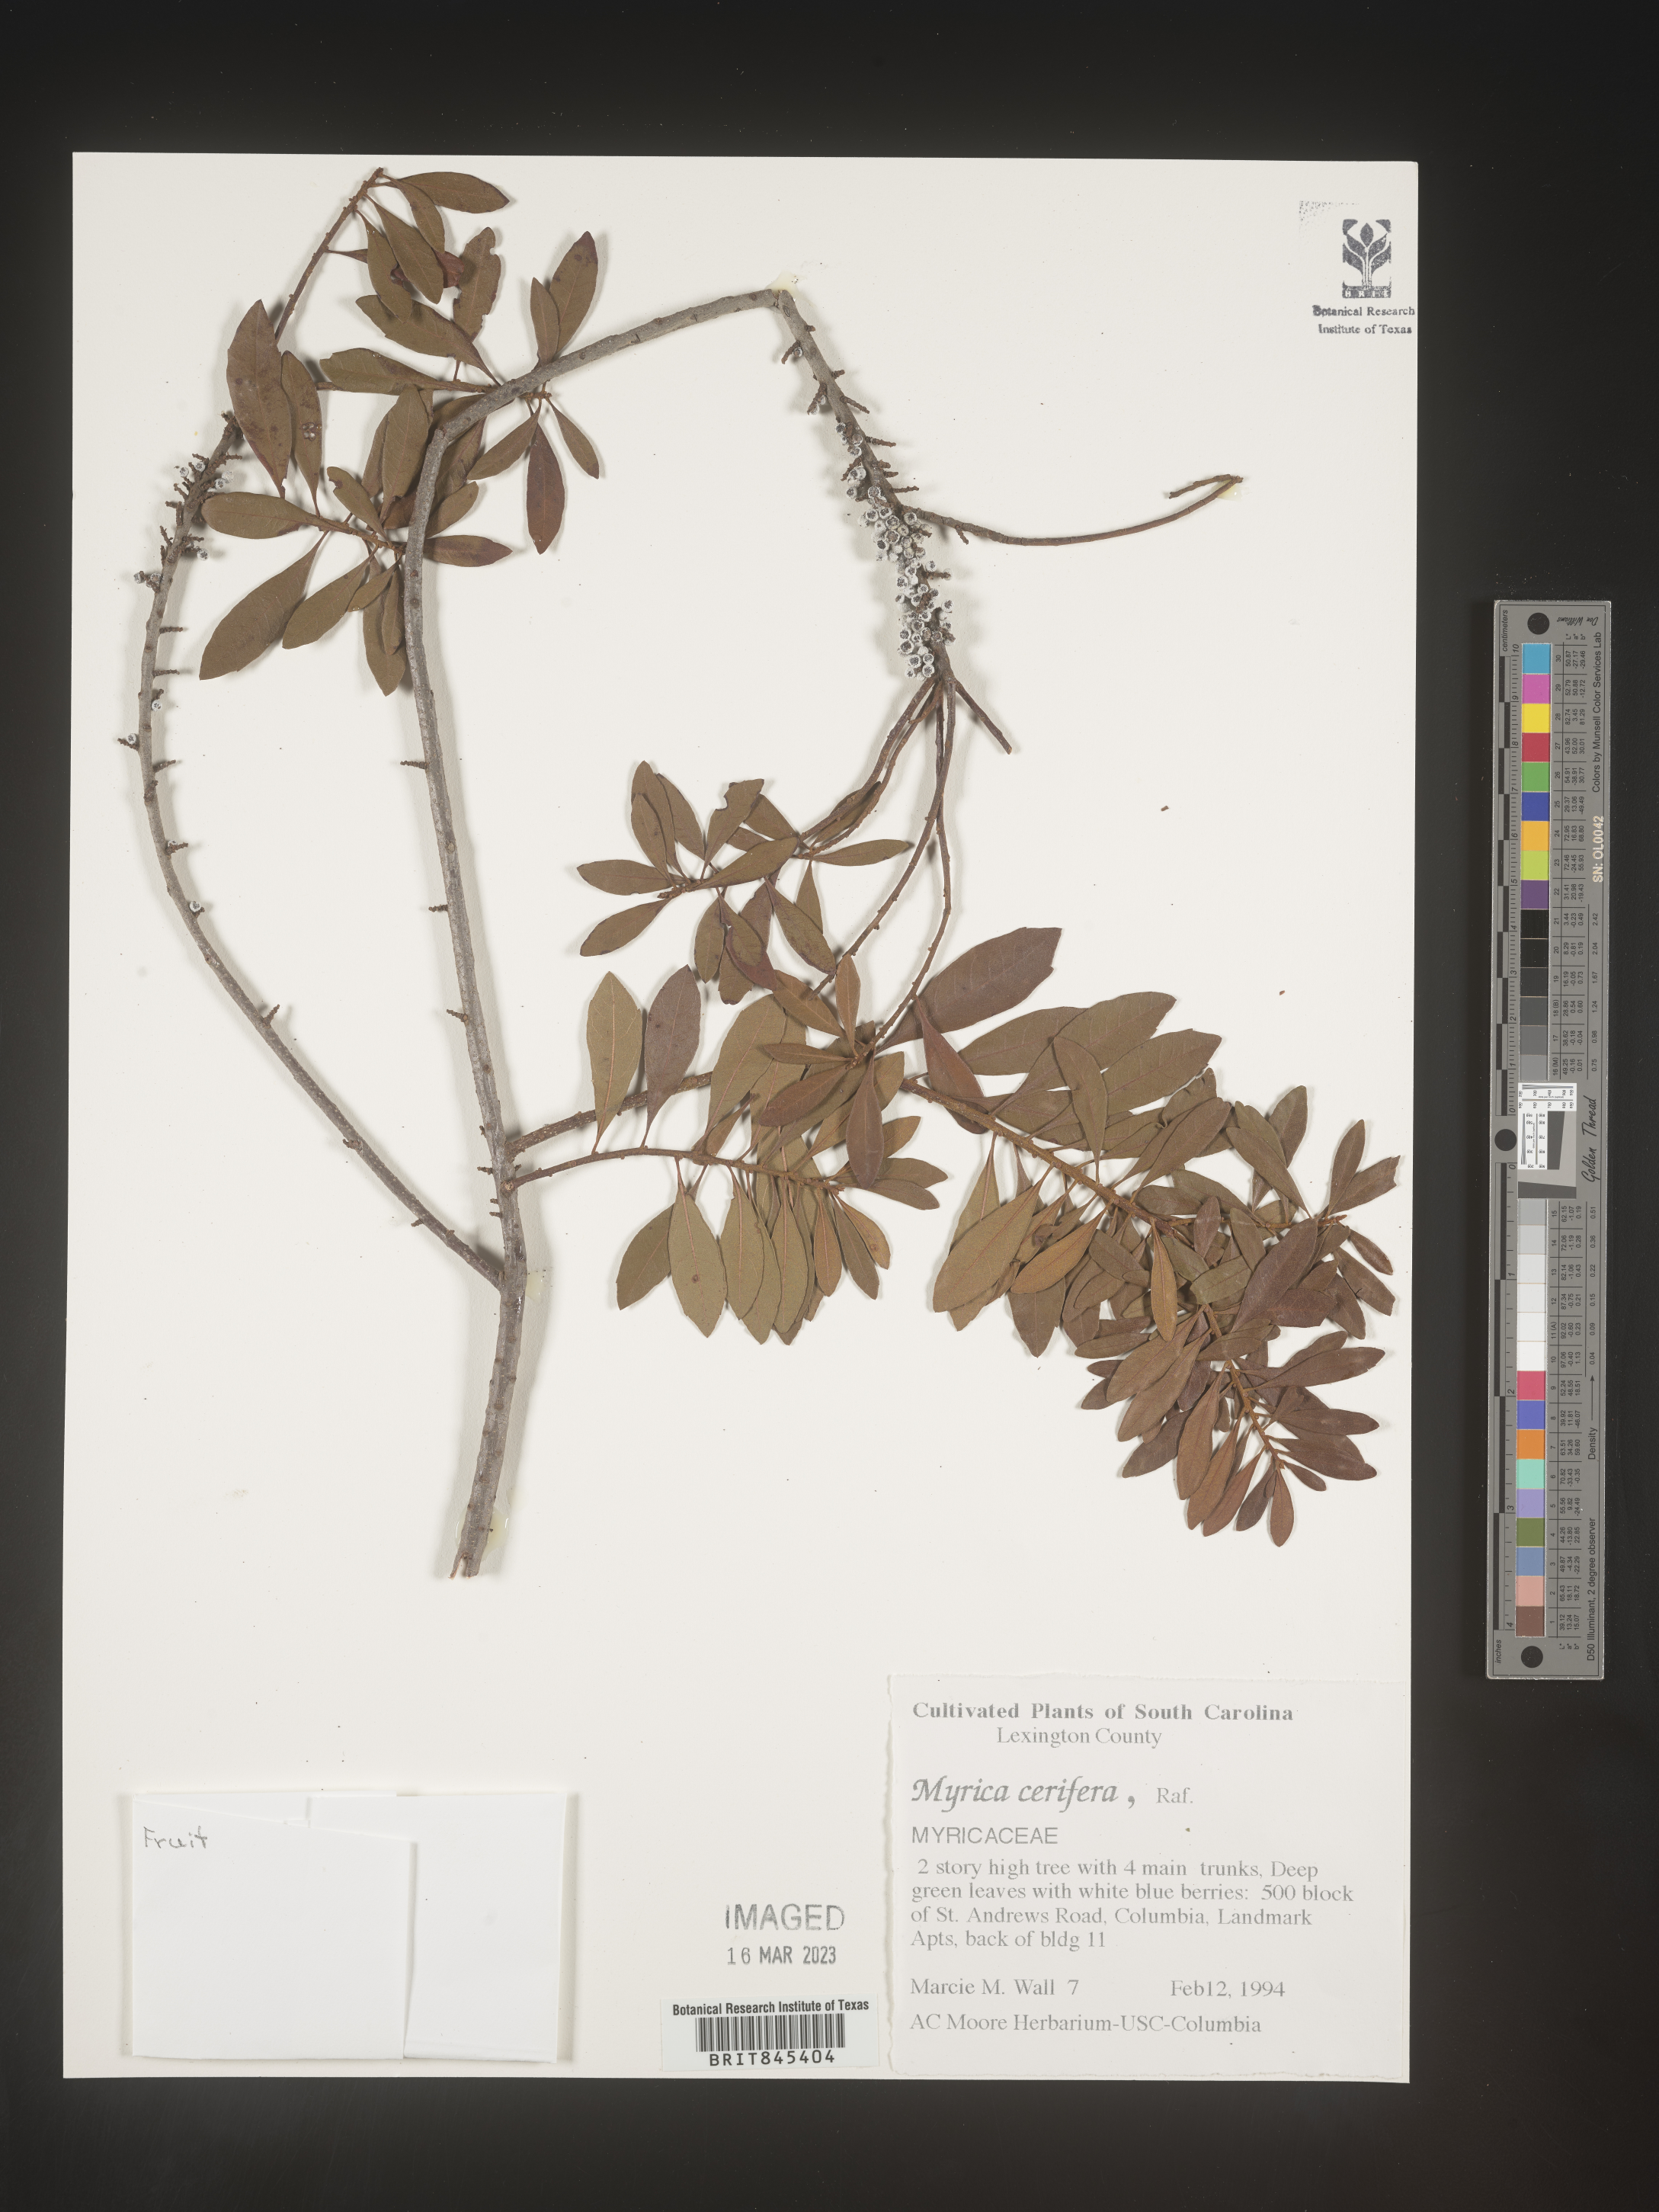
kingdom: Plantae
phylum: Tracheophyta
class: Magnoliopsida
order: Fagales
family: Myricaceae
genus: Morella
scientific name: Morella cerifera
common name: Wax myrtle
